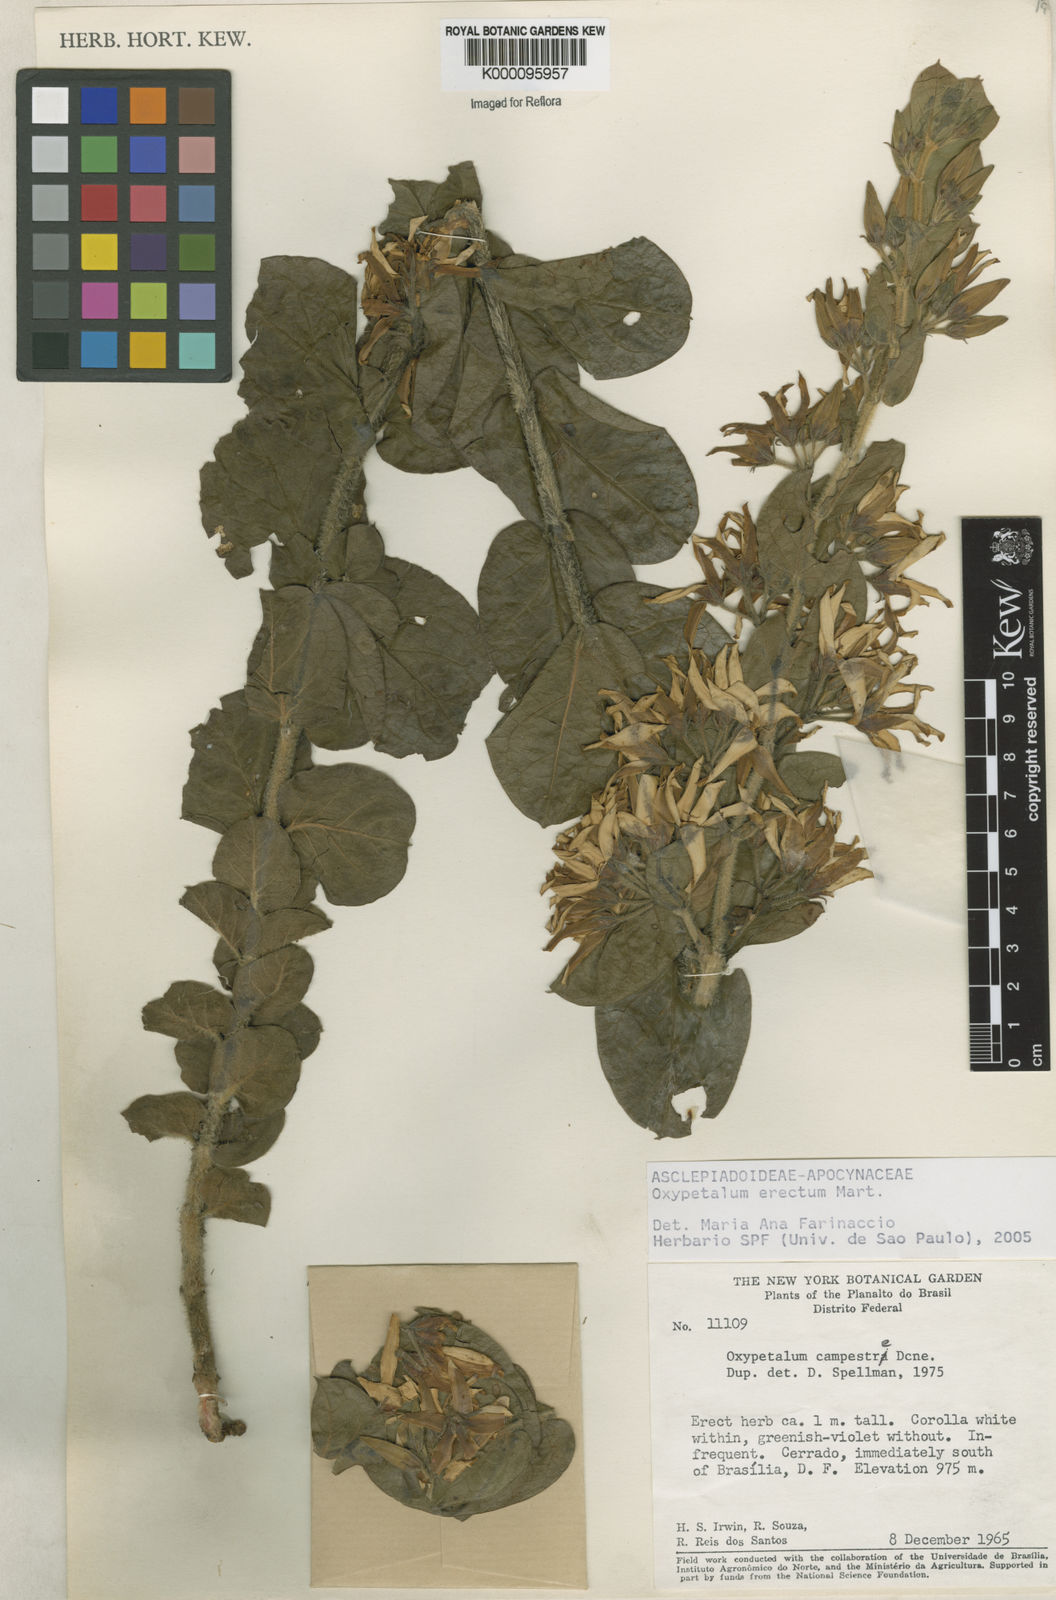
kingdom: Plantae
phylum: Tracheophyta
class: Magnoliopsida
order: Gentianales
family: Apocynaceae
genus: Oxypetalum
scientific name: Oxypetalum erectum
